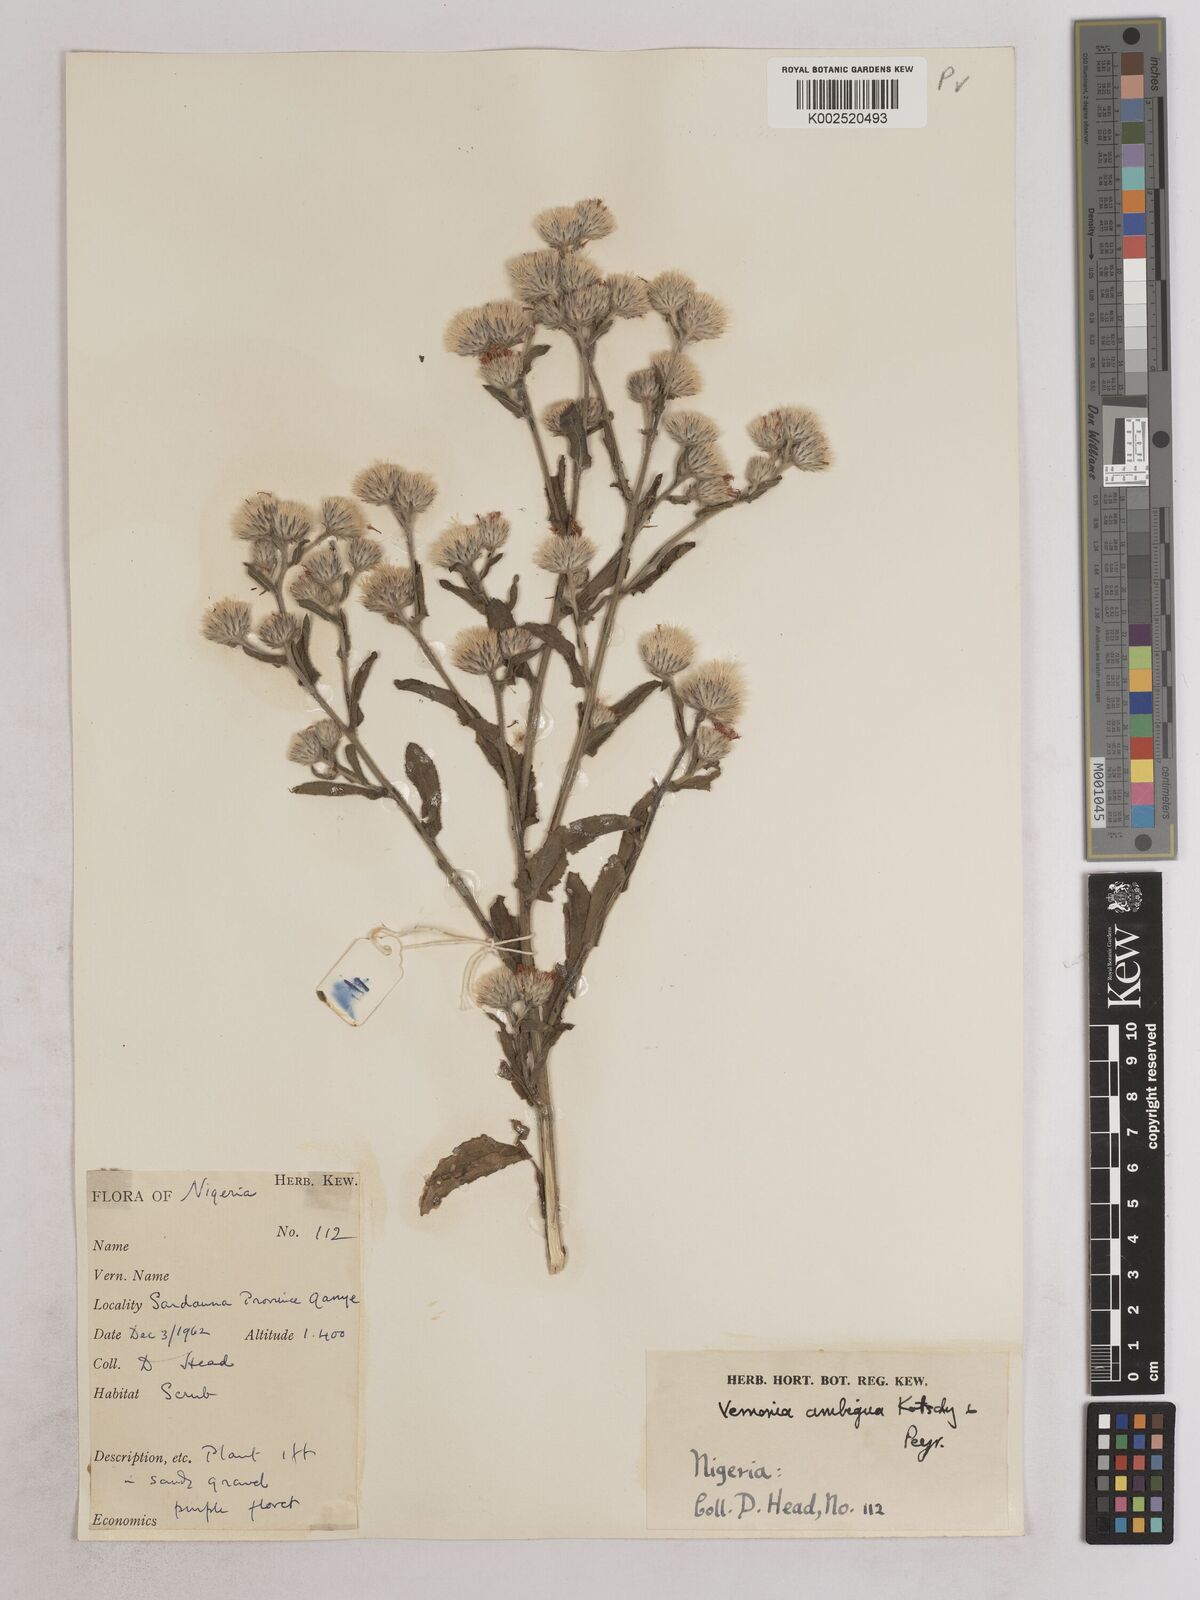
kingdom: Plantae
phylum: Tracheophyta
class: Magnoliopsida
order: Asterales
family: Asteraceae
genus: Vernoniastrum
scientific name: Vernoniastrum ambiguum
